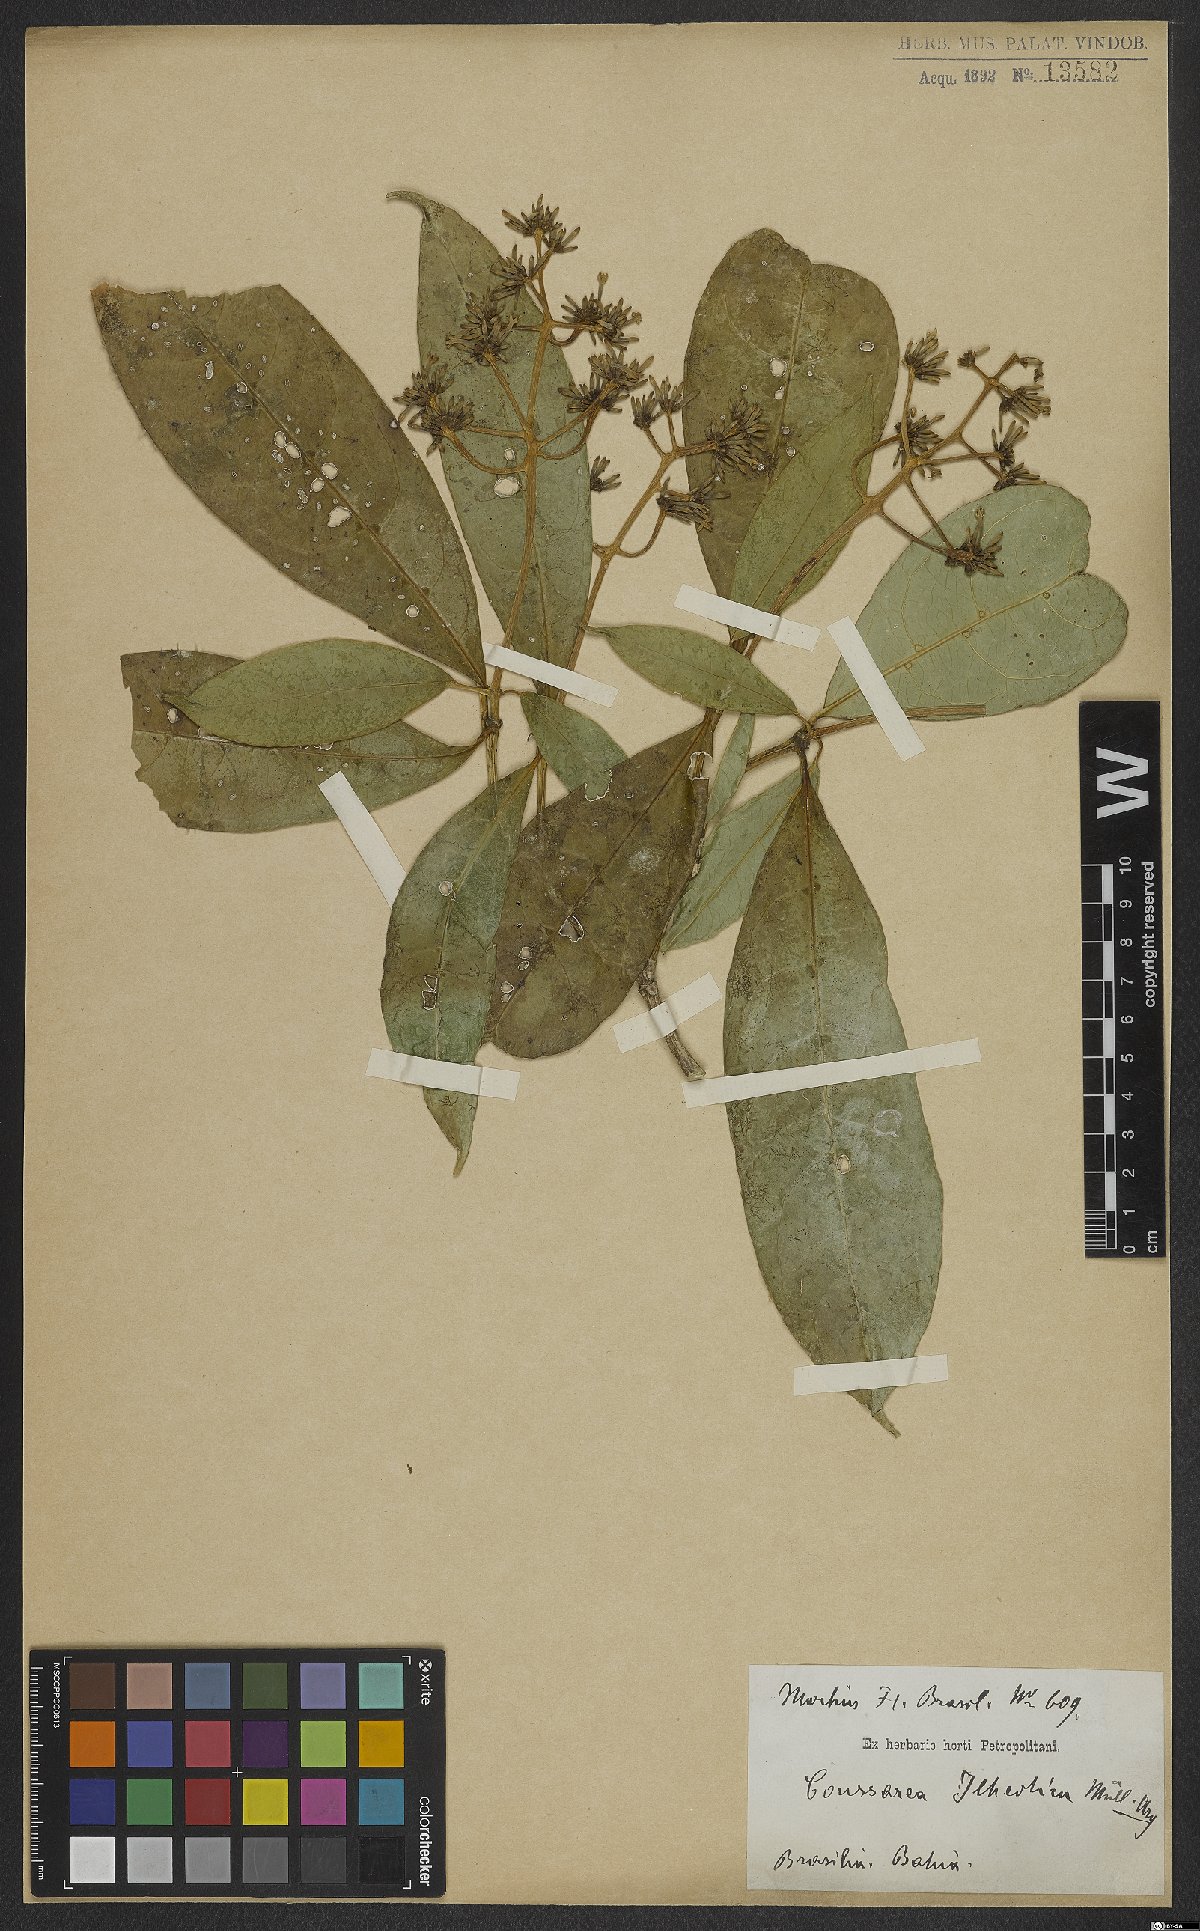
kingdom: Plantae
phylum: Tracheophyta
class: Magnoliopsida
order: Gentianales
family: Rubiaceae
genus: Coussarea
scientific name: Coussarea ilheotica
